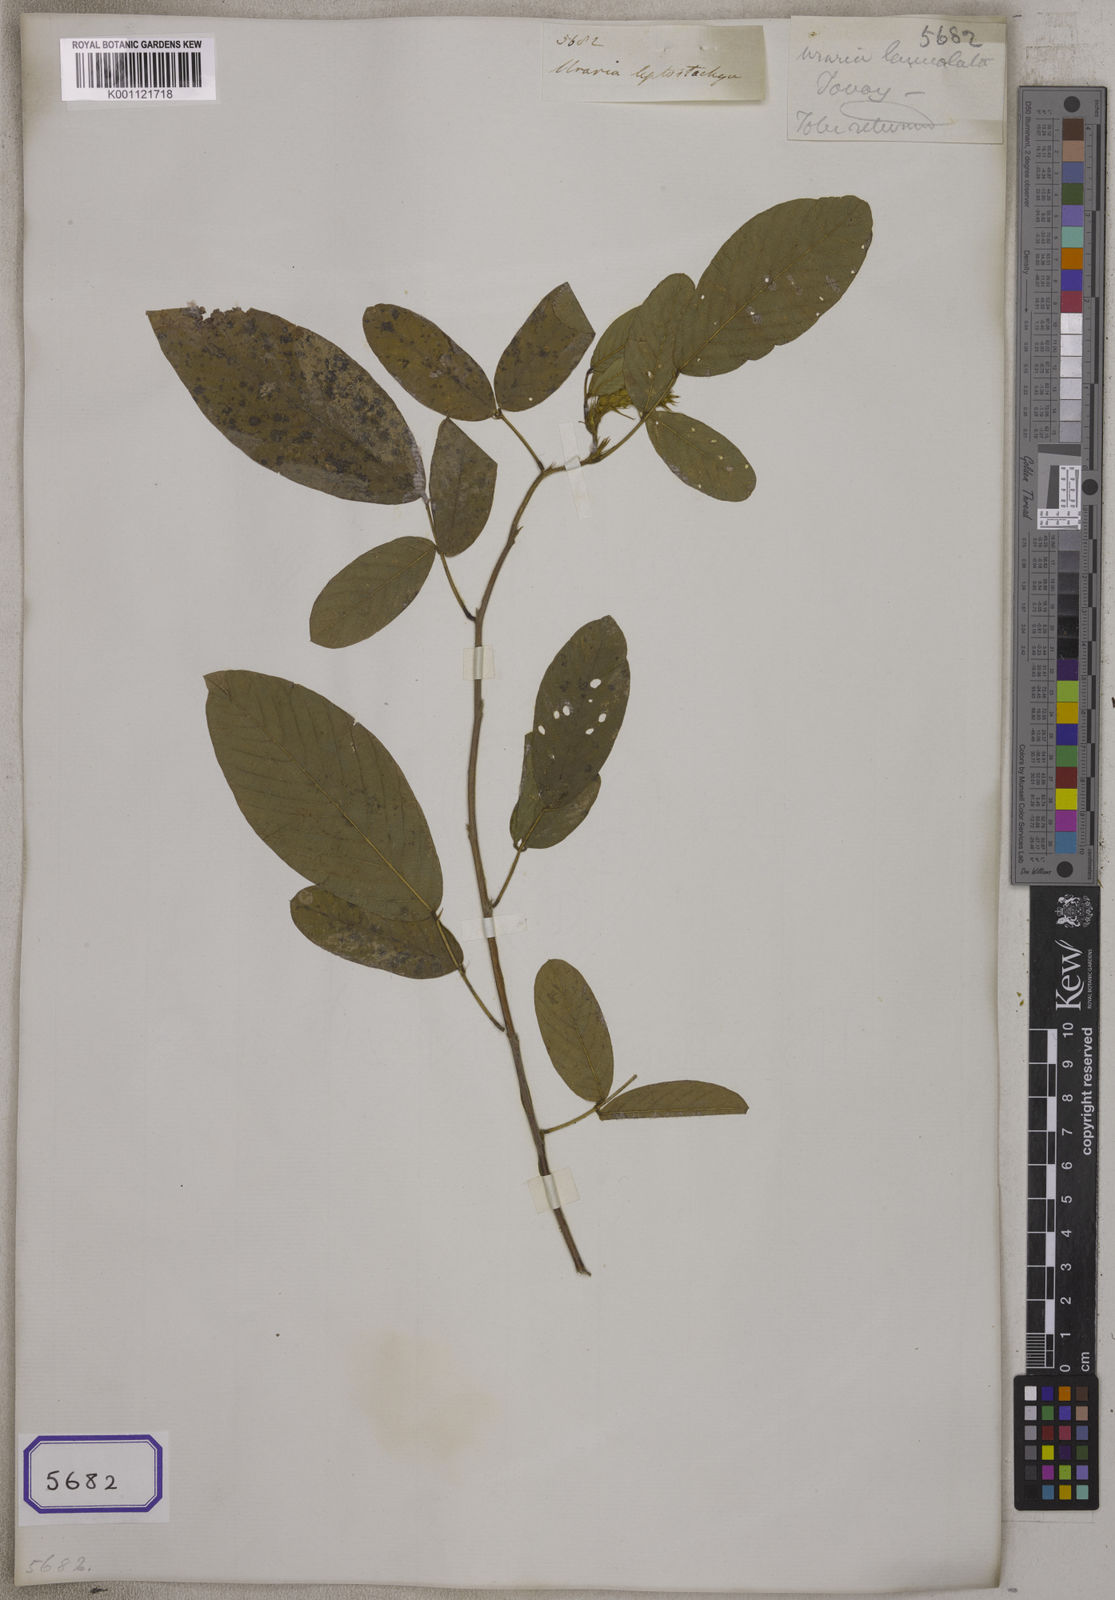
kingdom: Plantae
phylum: Tracheophyta
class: Magnoliopsida
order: Fabales
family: Fabaceae
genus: Uraria
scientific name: Uraria rufescens
